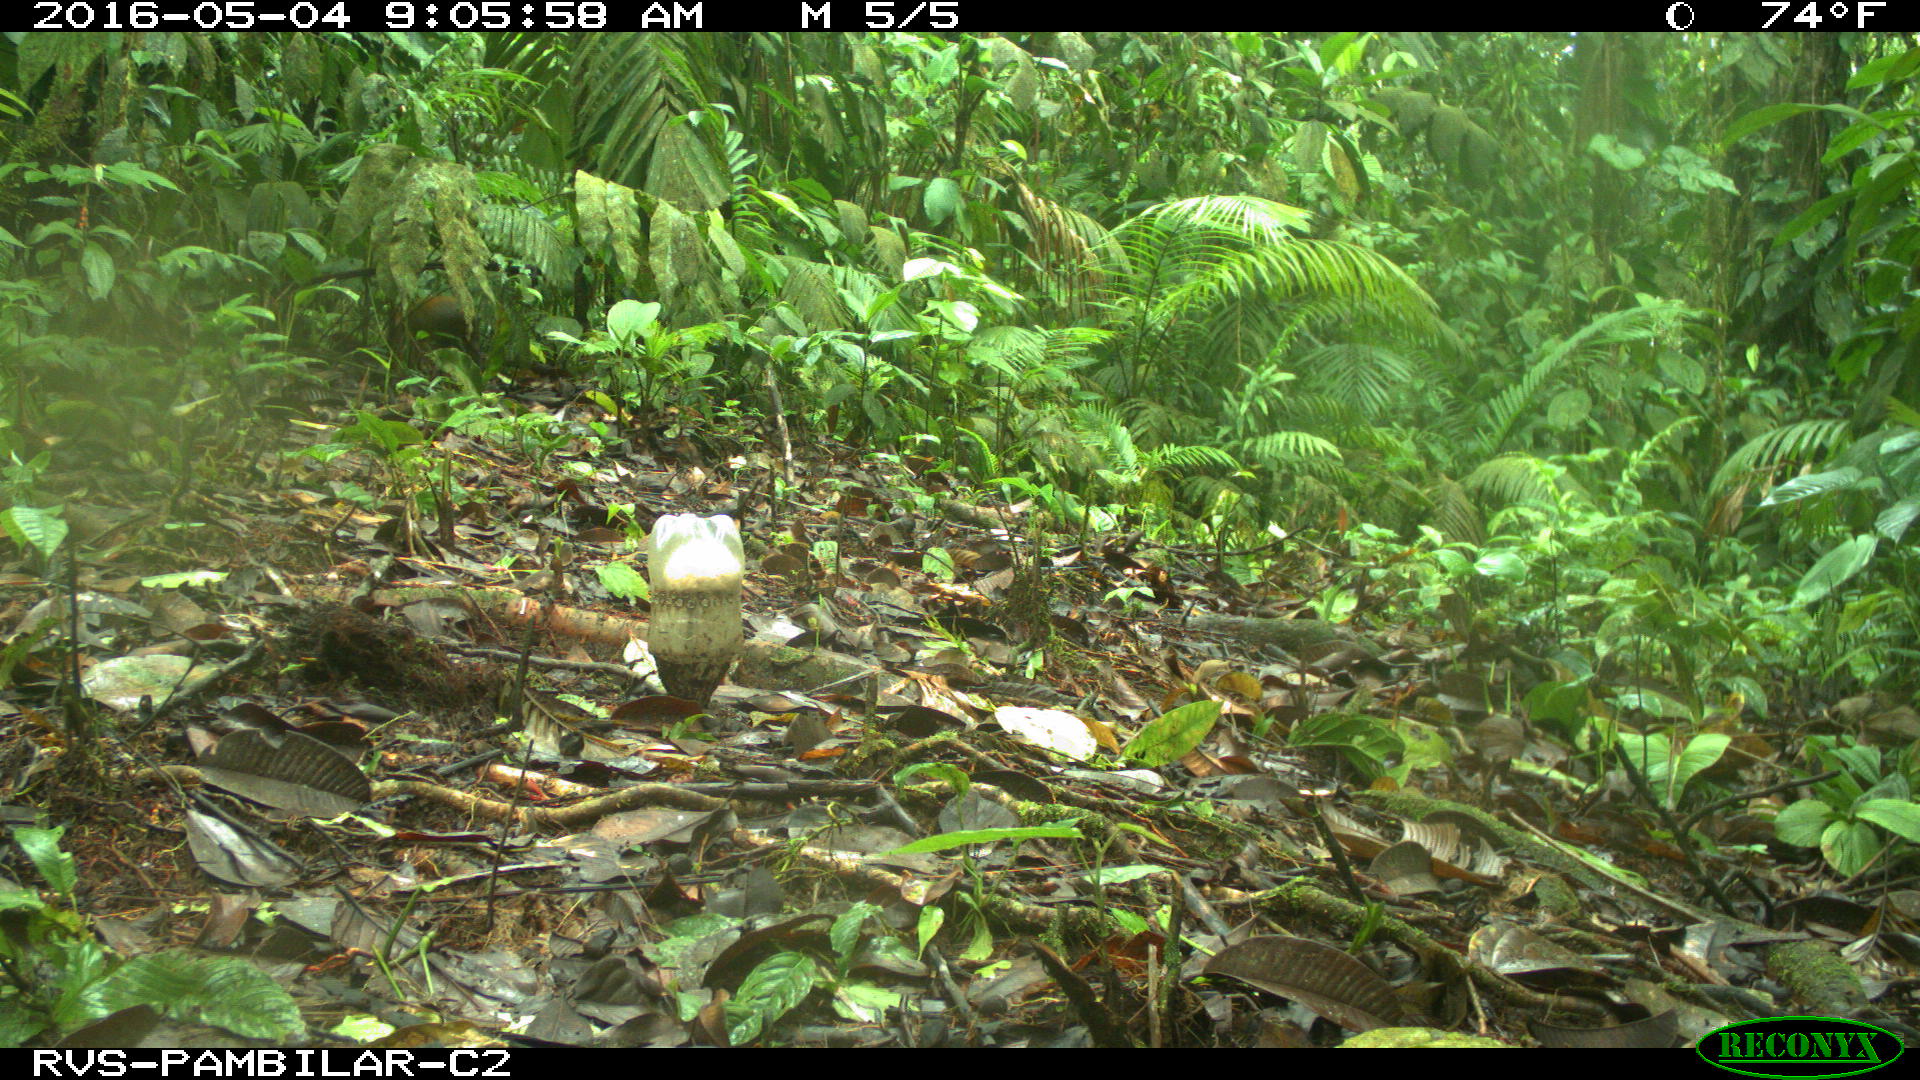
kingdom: Animalia
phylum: Chordata
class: Mammalia
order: Rodentia
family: Cuniculidae
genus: Cuniculus
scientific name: Cuniculus paca
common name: Lowland paca
